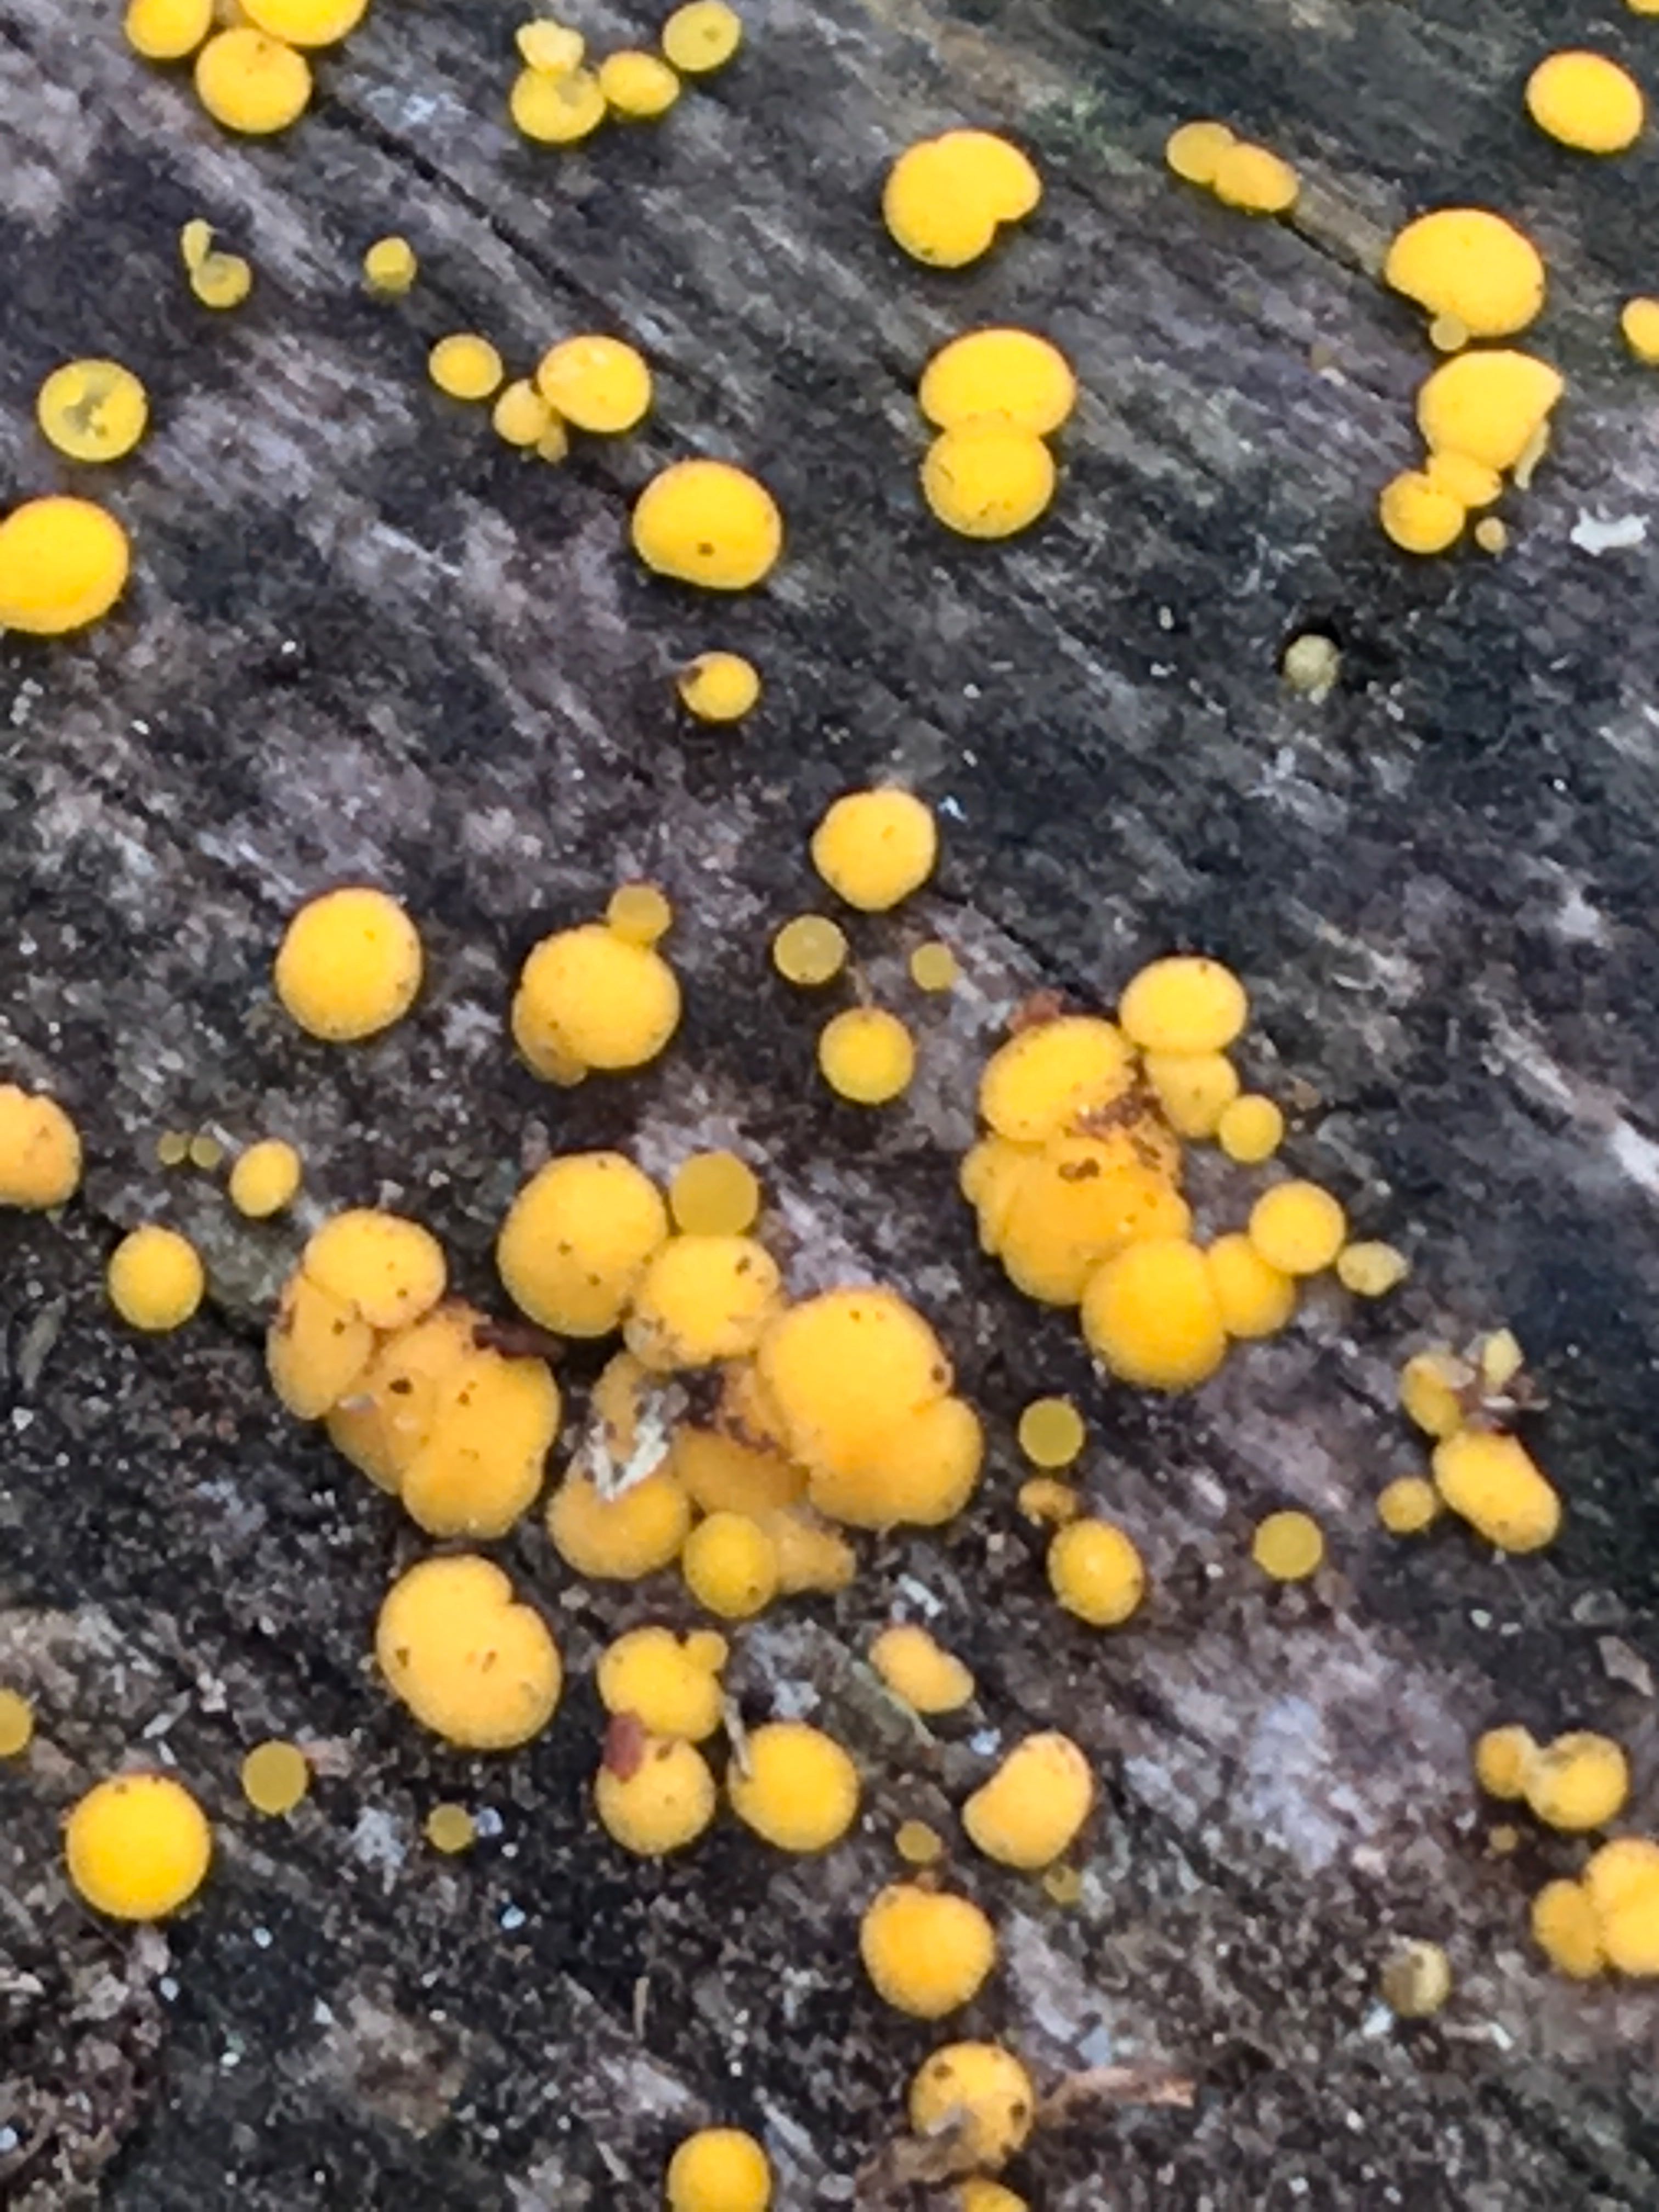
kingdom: Fungi
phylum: Ascomycota
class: Leotiomycetes
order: Helotiales
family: Pezizellaceae
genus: Calycina
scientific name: Calycina citrina
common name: almindelig gulskive
